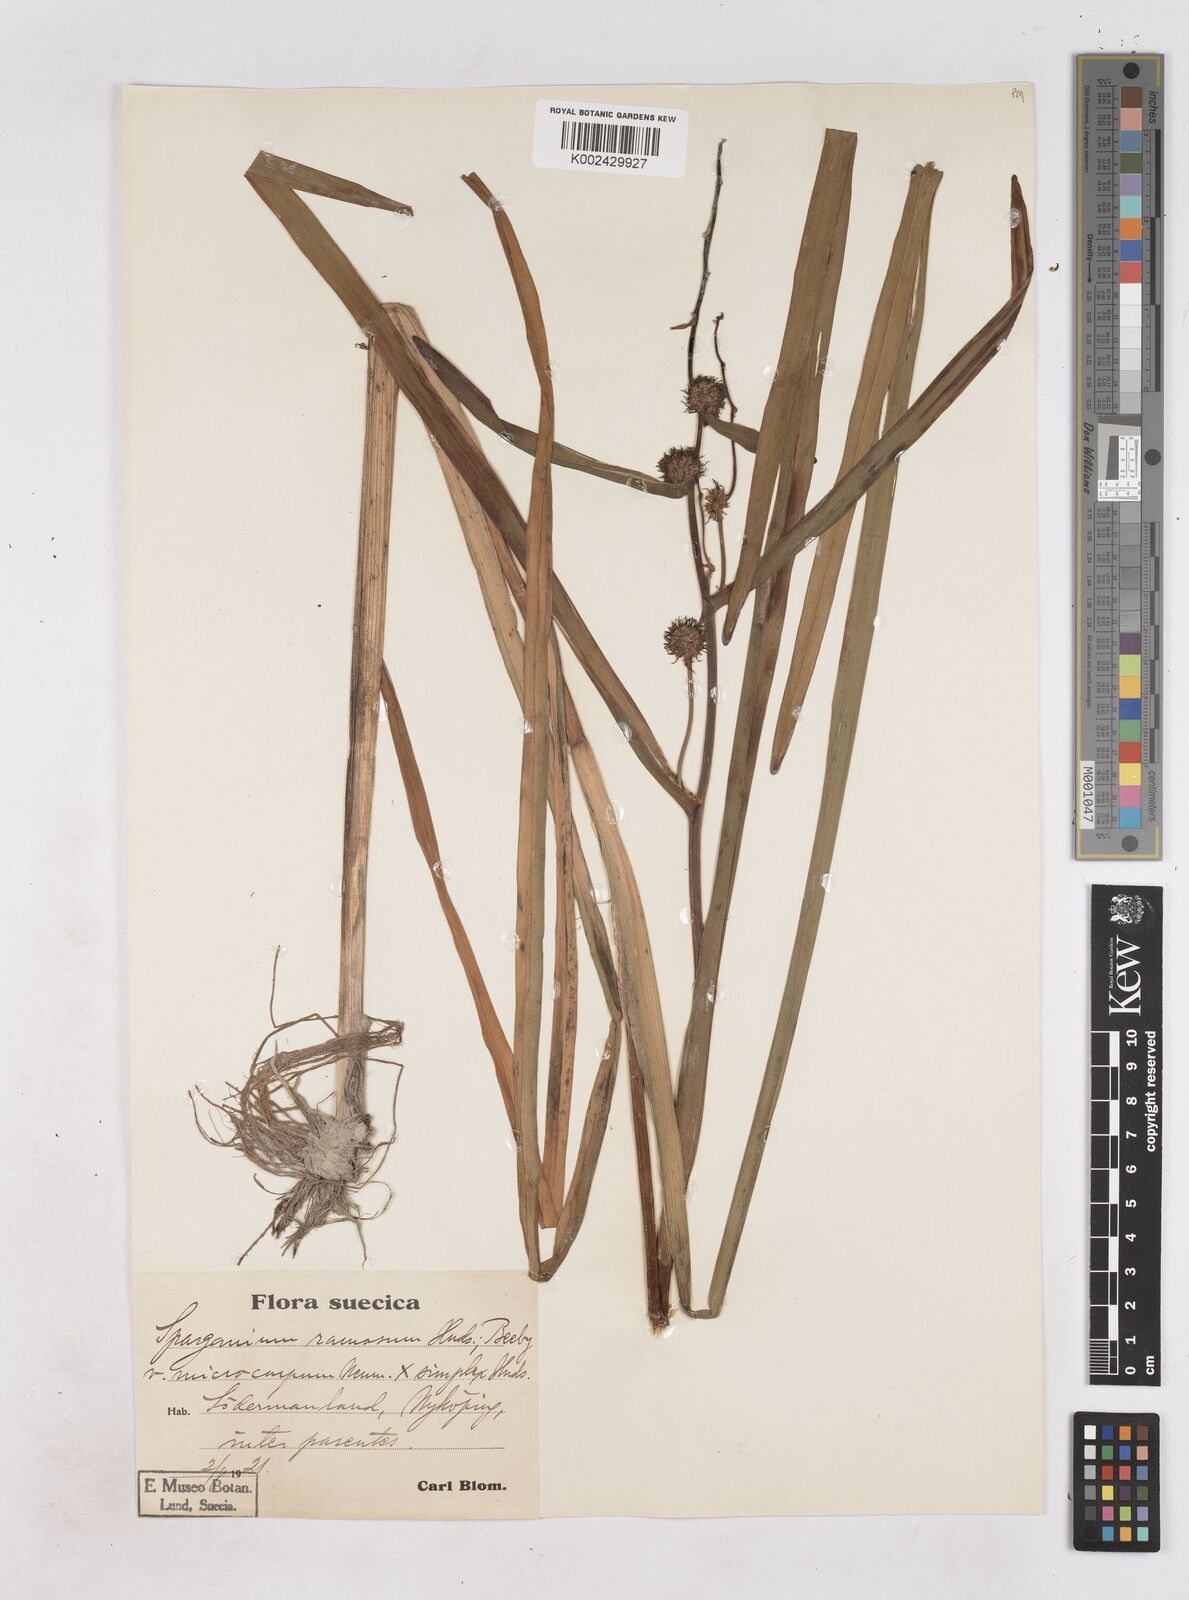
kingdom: Plantae
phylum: Tracheophyta
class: Liliopsida
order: Poales
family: Typhaceae
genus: Sparganium
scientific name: Sparganium erectum
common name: Branched bur-reed
